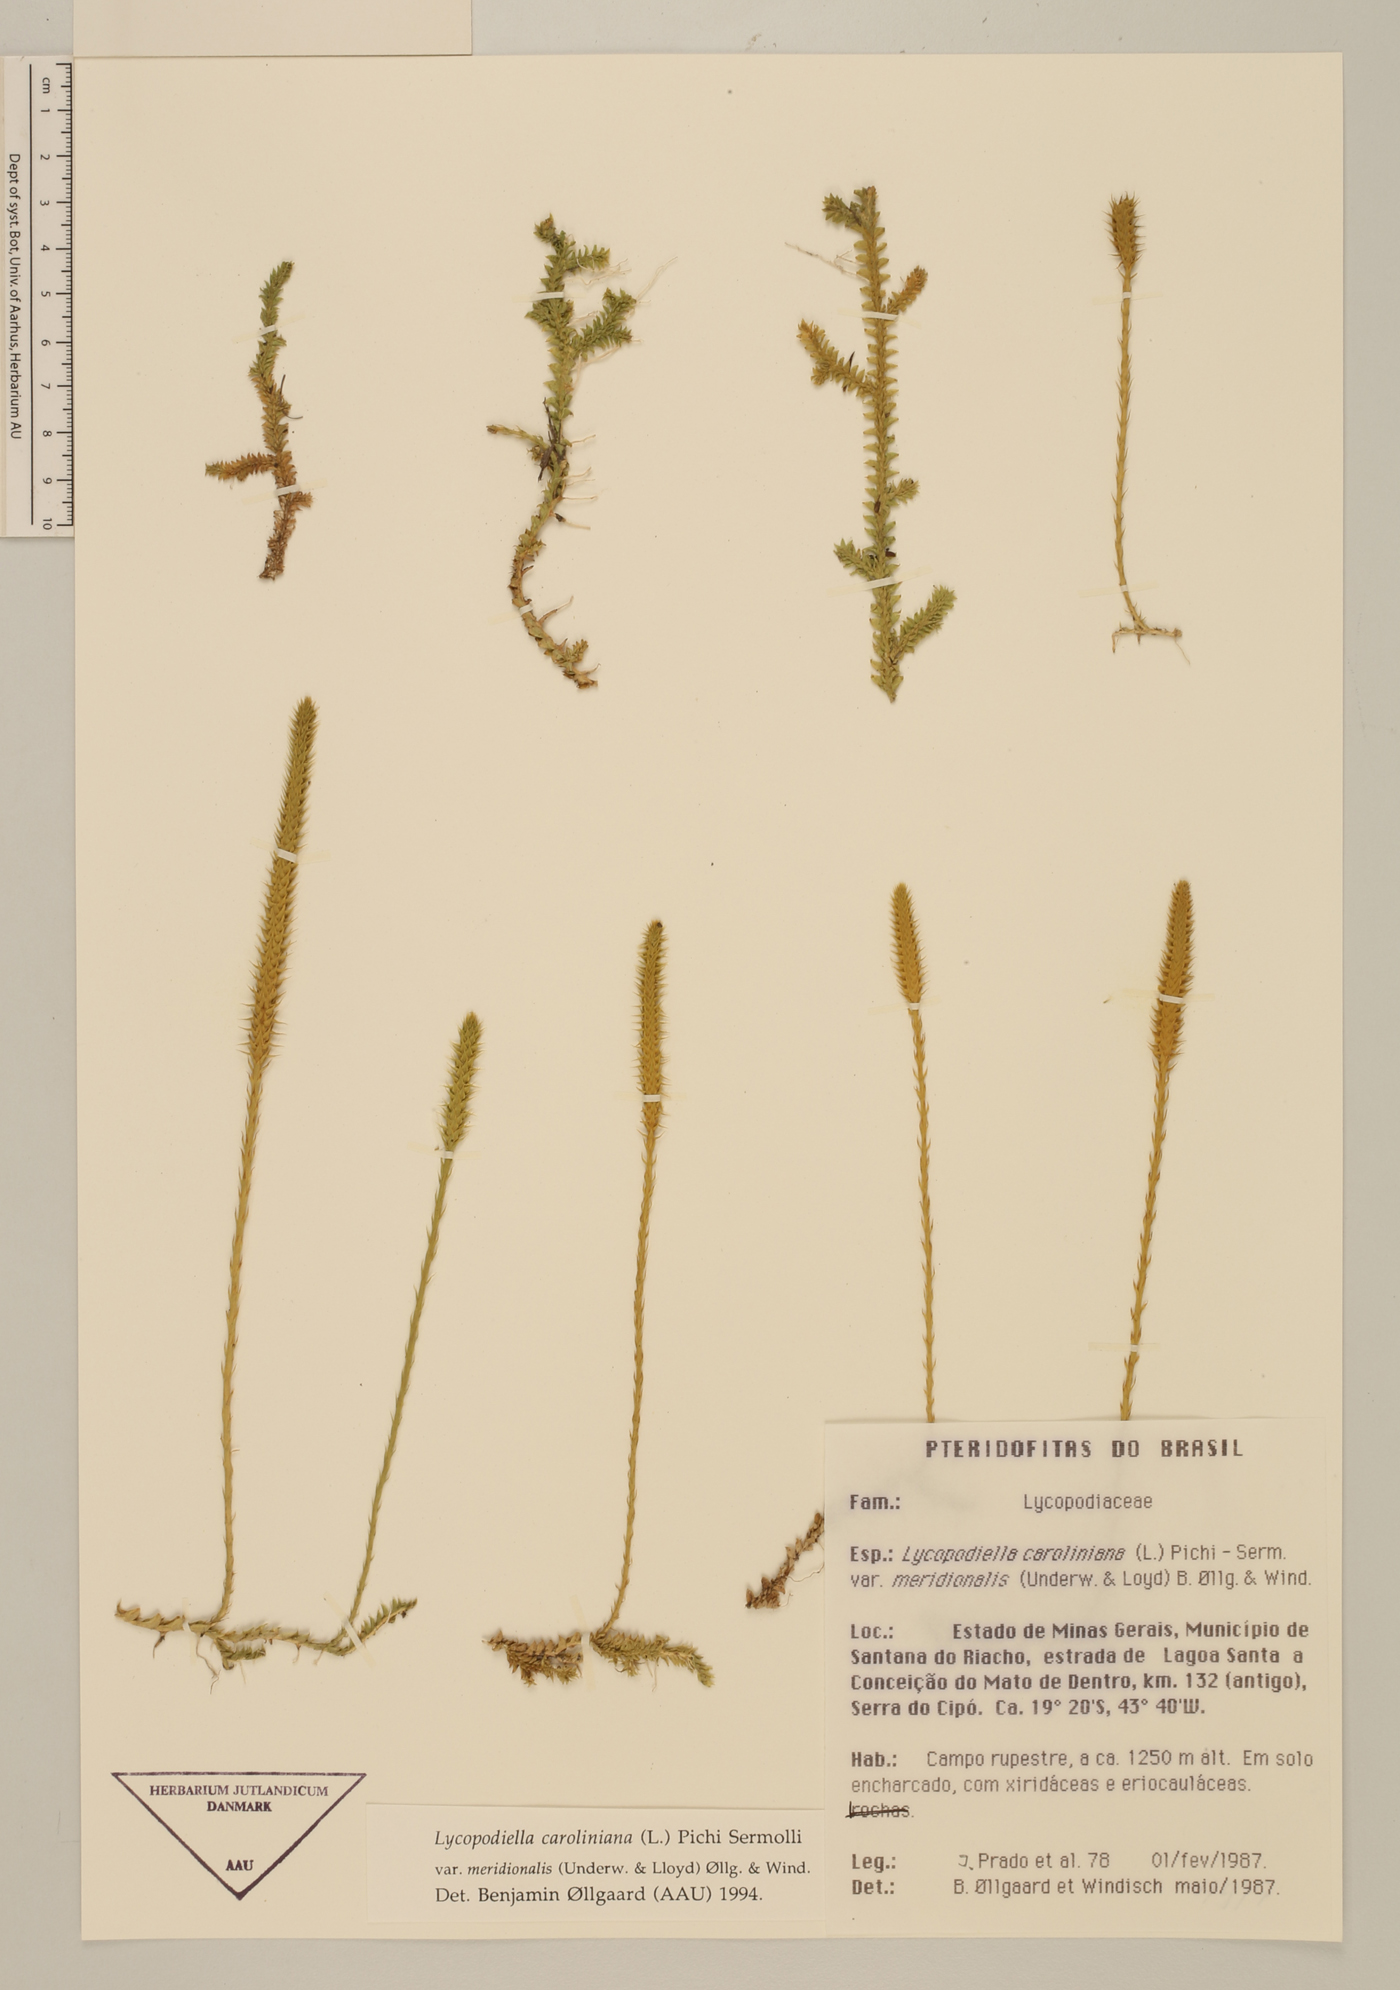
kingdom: Plantae
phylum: Tracheophyta
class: Lycopodiopsida
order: Lycopodiales
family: Lycopodiaceae
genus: Pseudolycopodiella
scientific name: Pseudolycopodiella meridionalis
